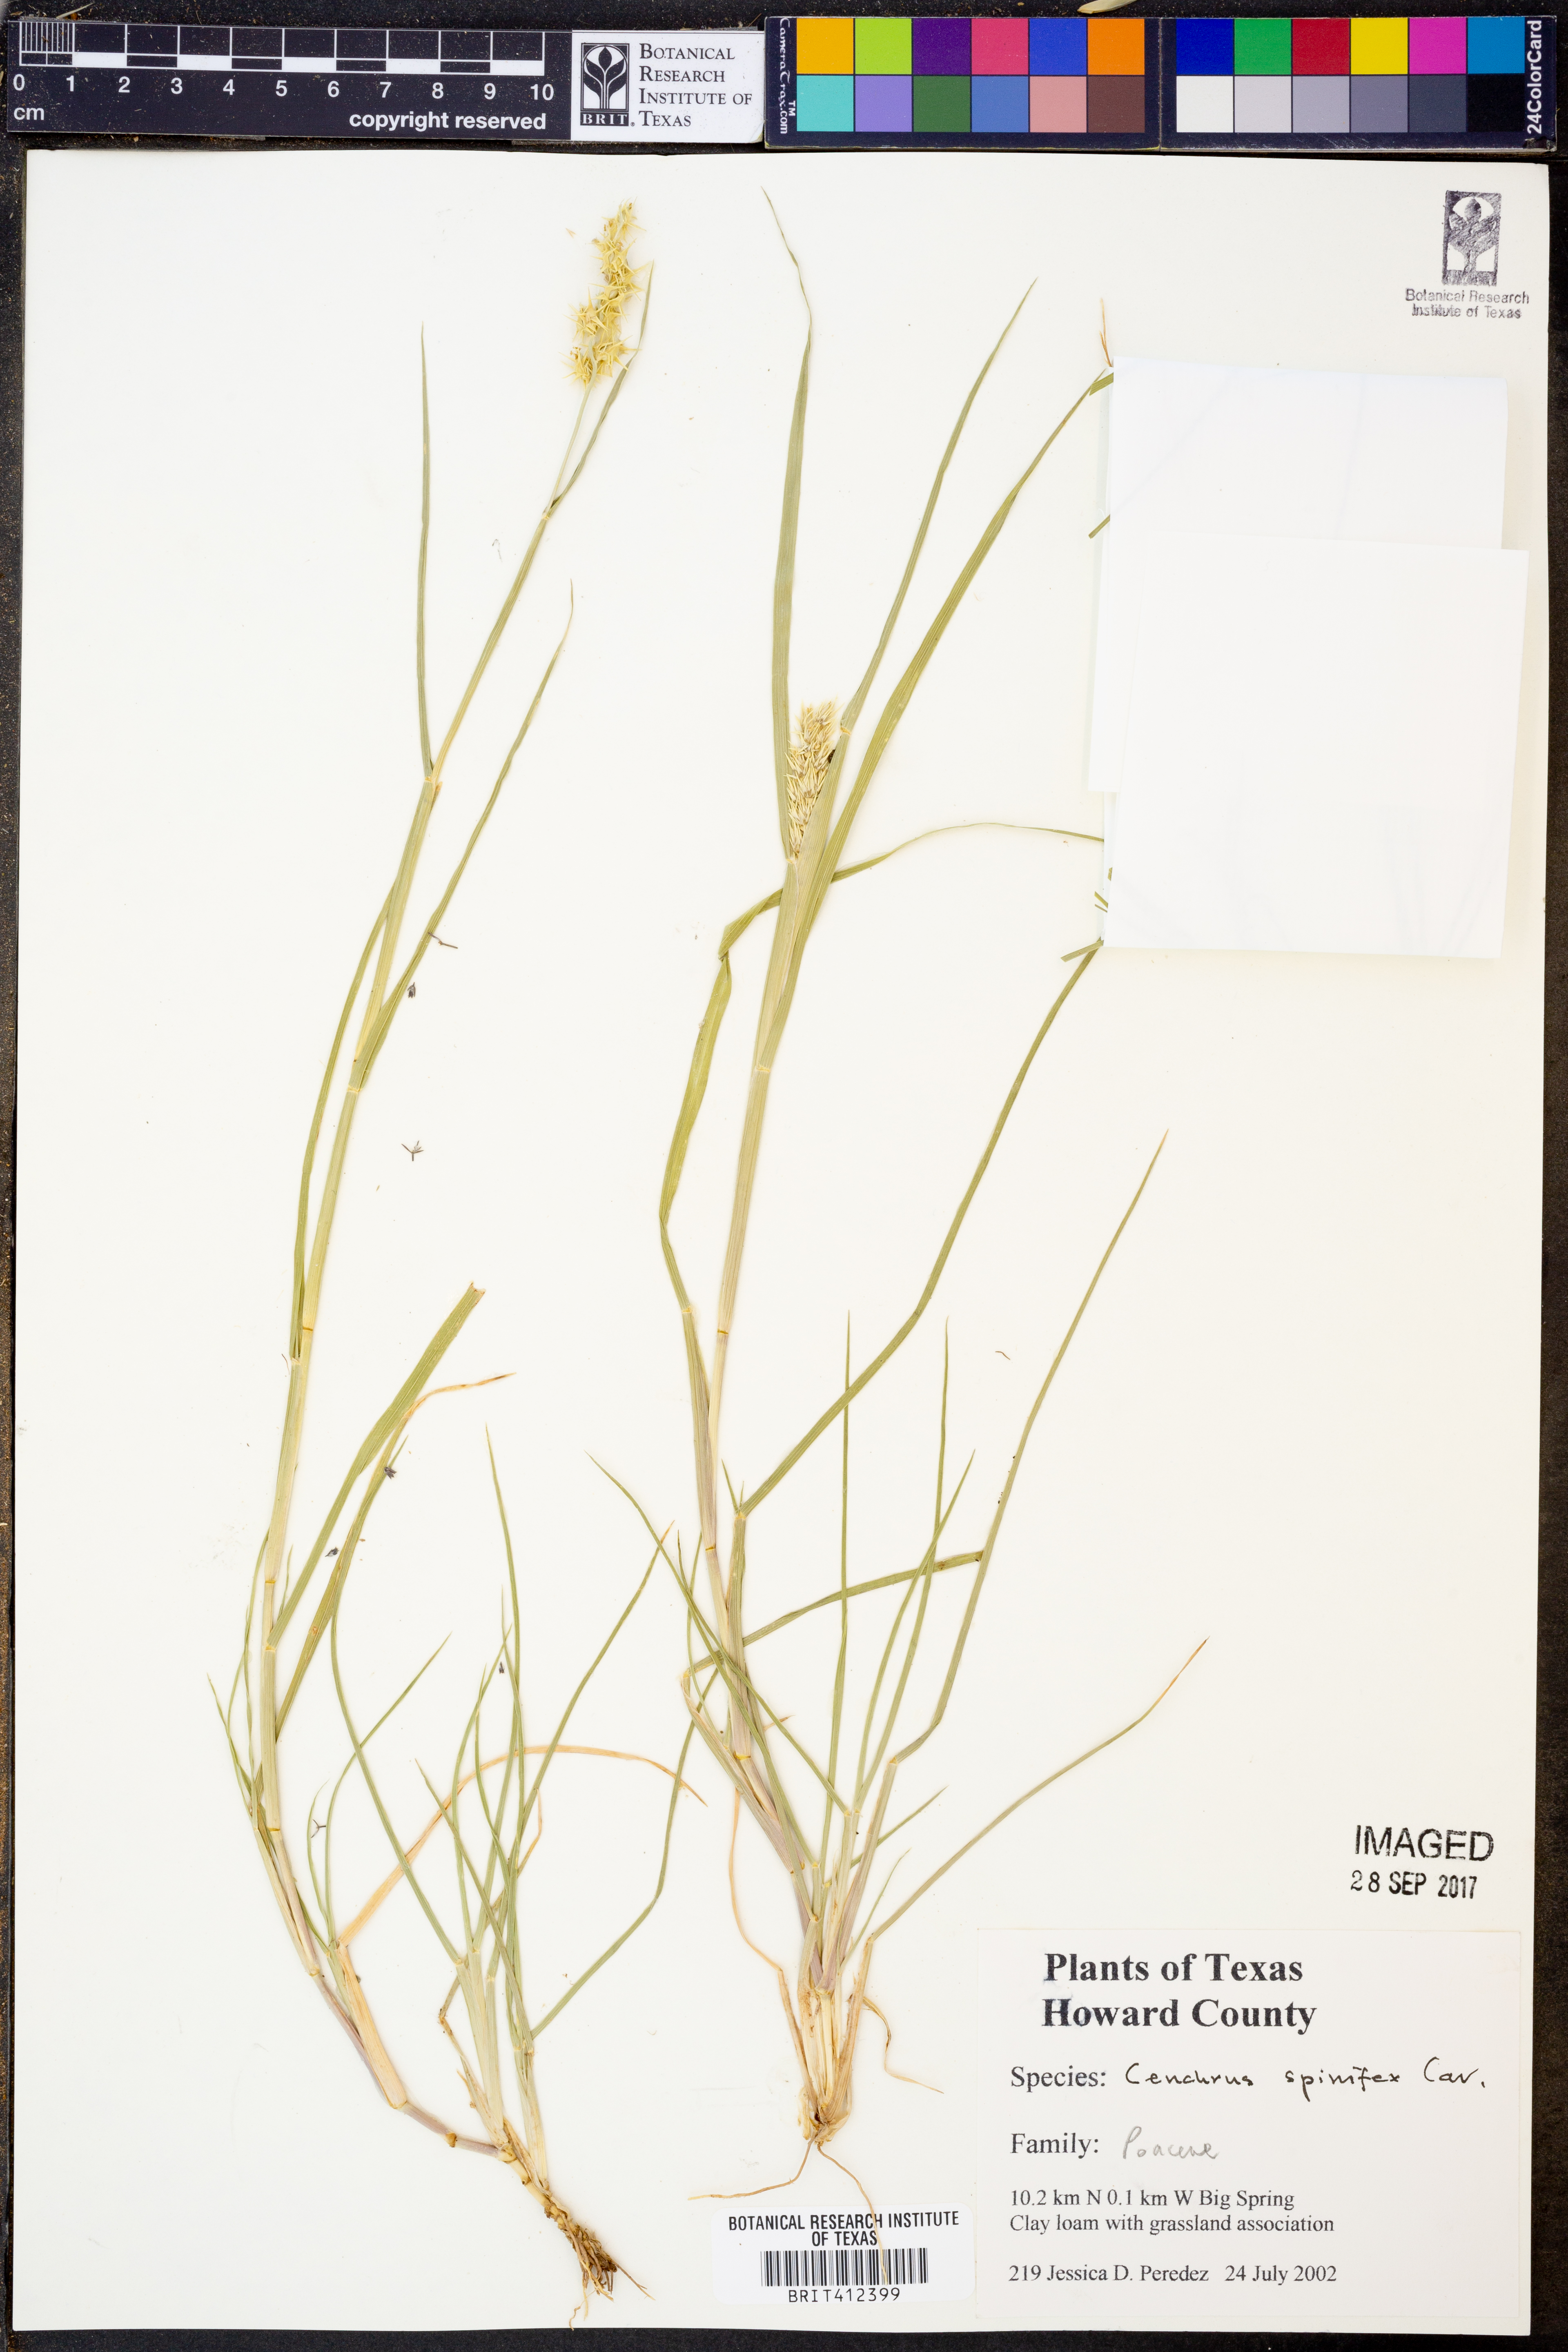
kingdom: Plantae
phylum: Tracheophyta
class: Liliopsida
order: Poales
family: Poaceae
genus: Cenchrus
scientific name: Cenchrus spinifex
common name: Coast sandbur
